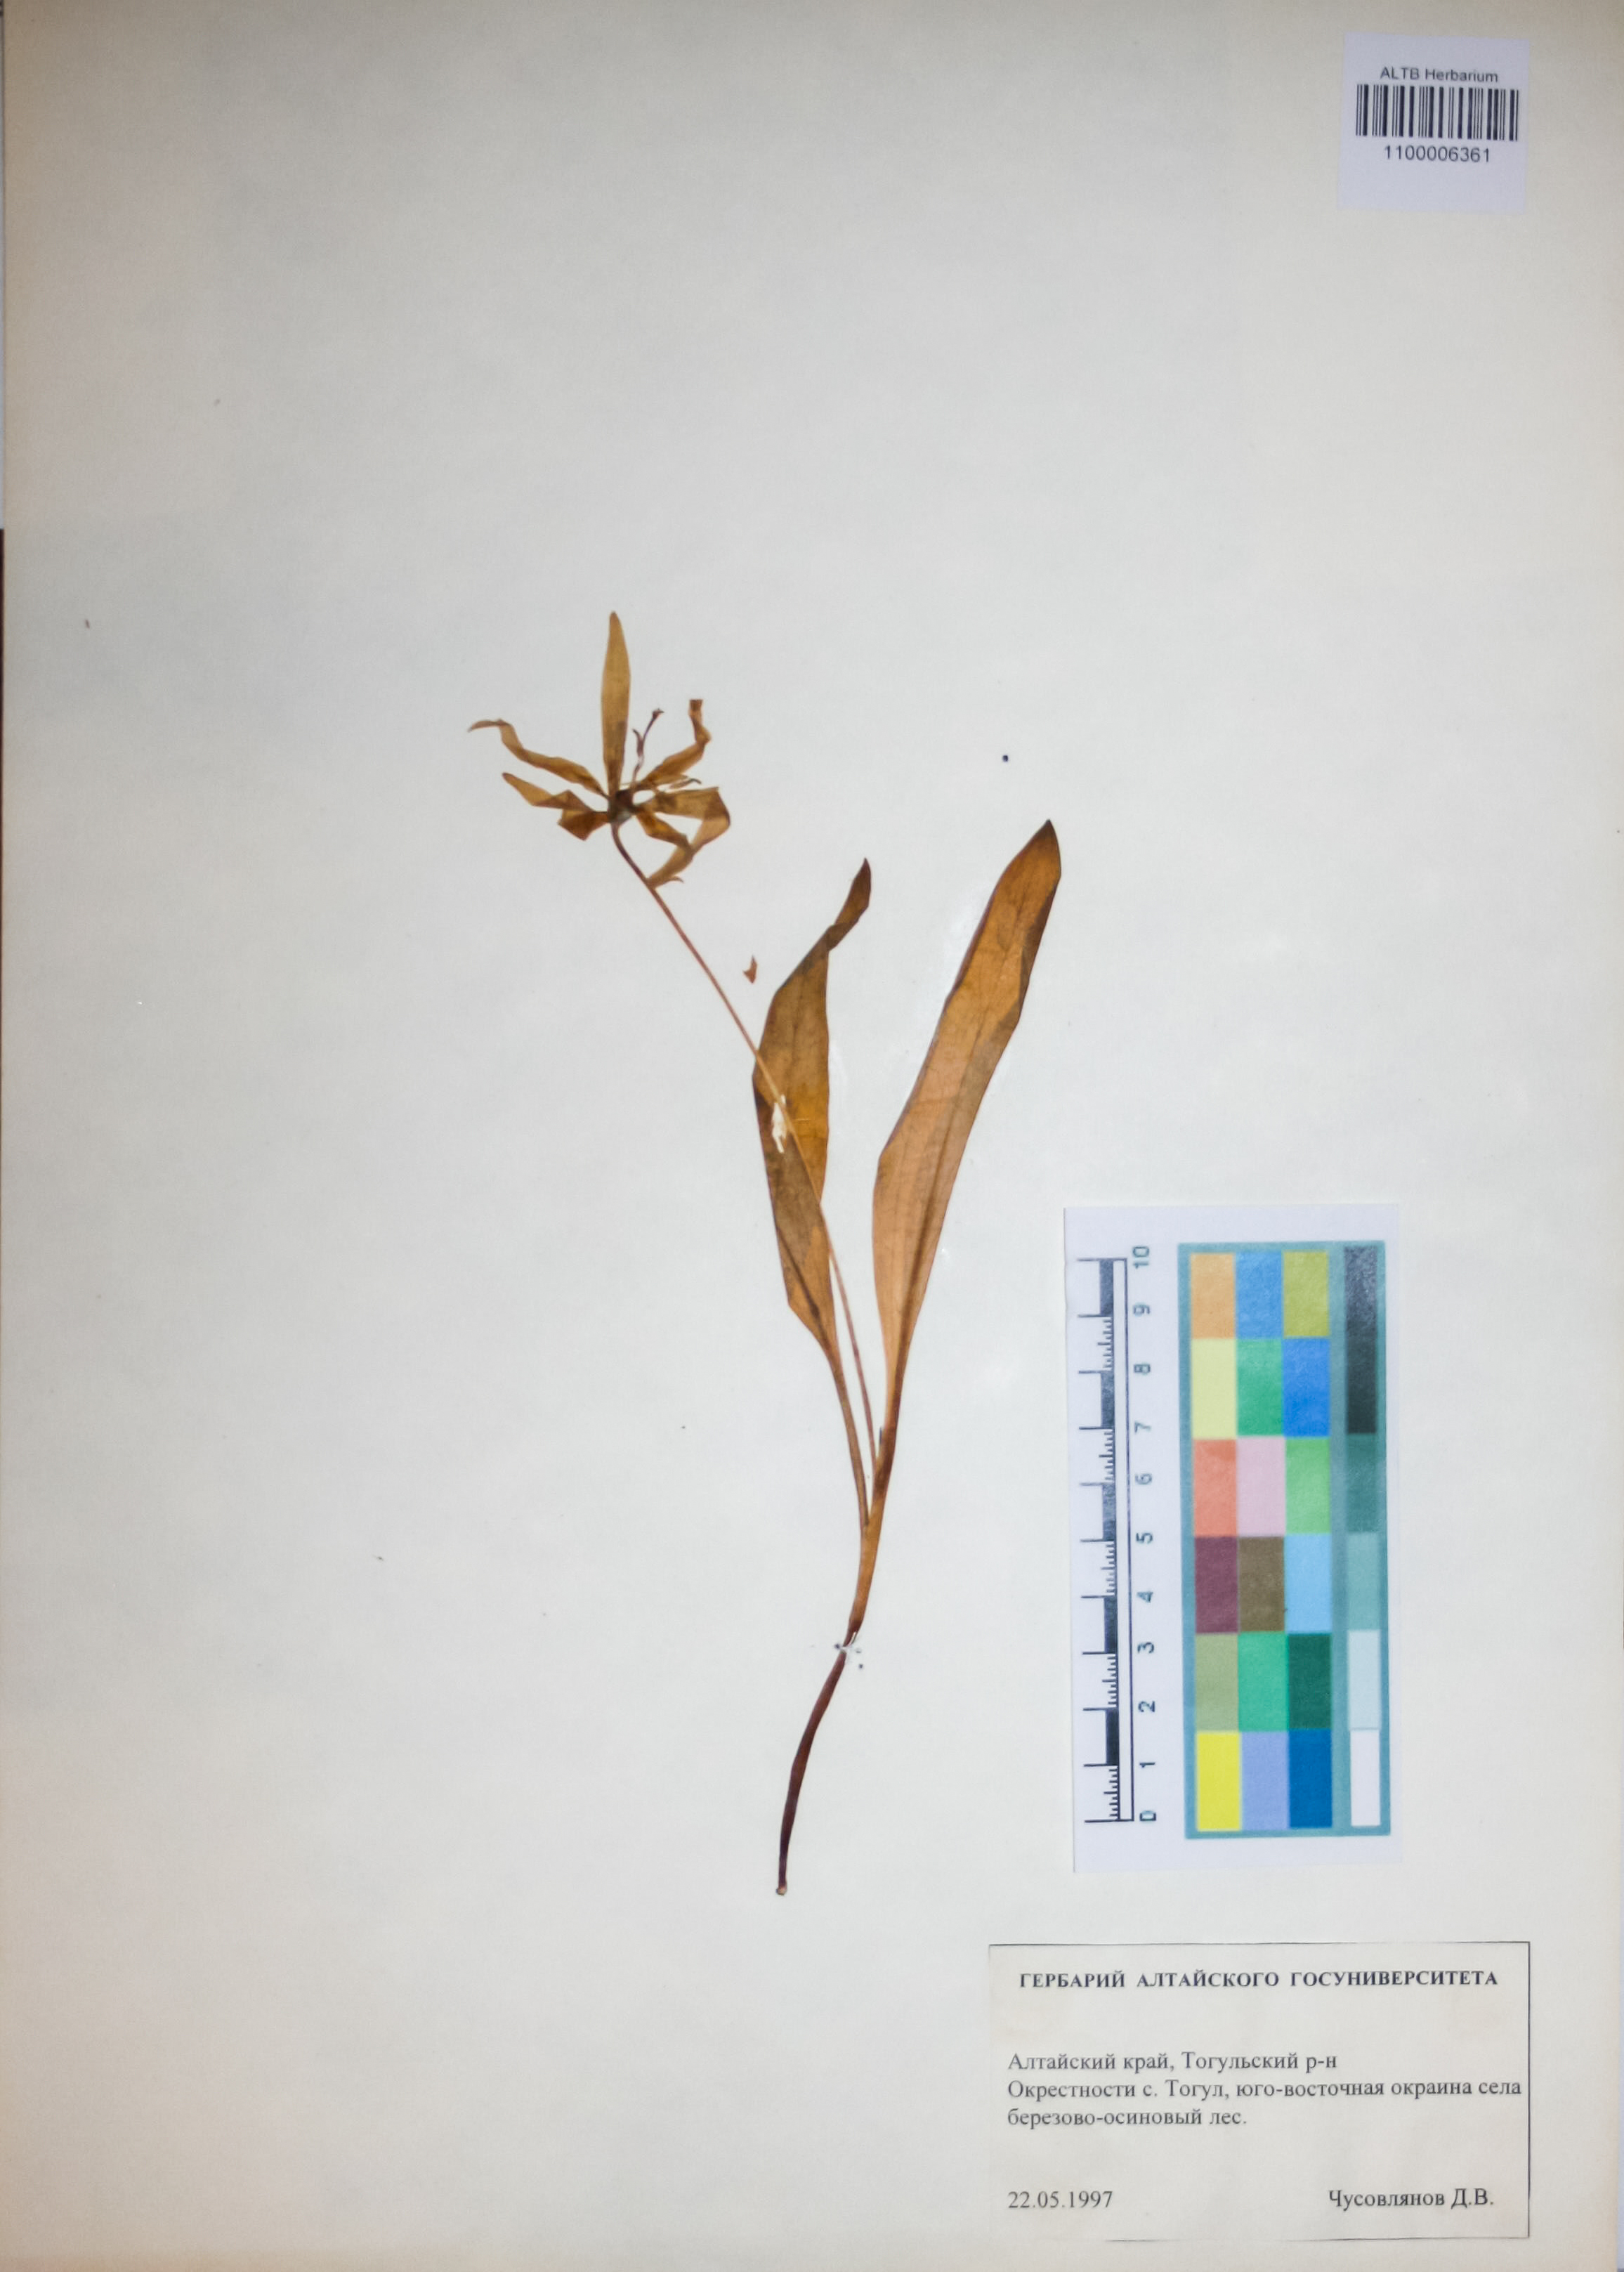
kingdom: Plantae
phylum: Tracheophyta
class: Liliopsida
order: Liliales
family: Liliaceae
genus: Erythronium
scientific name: Erythronium sibiricum
